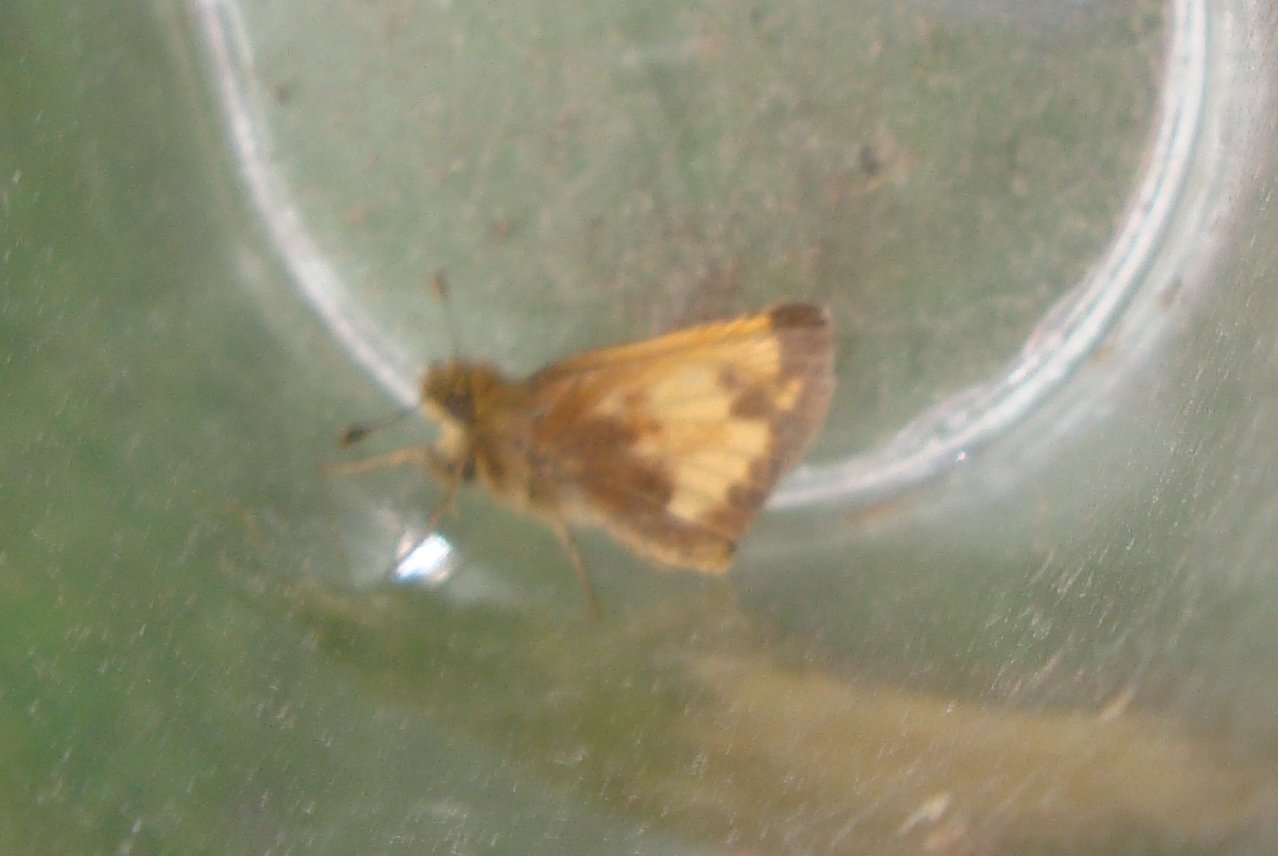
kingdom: Animalia
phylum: Arthropoda
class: Insecta
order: Lepidoptera
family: Hesperiidae
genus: Lon
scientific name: Lon hobomok
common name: Hobomok Skipper
